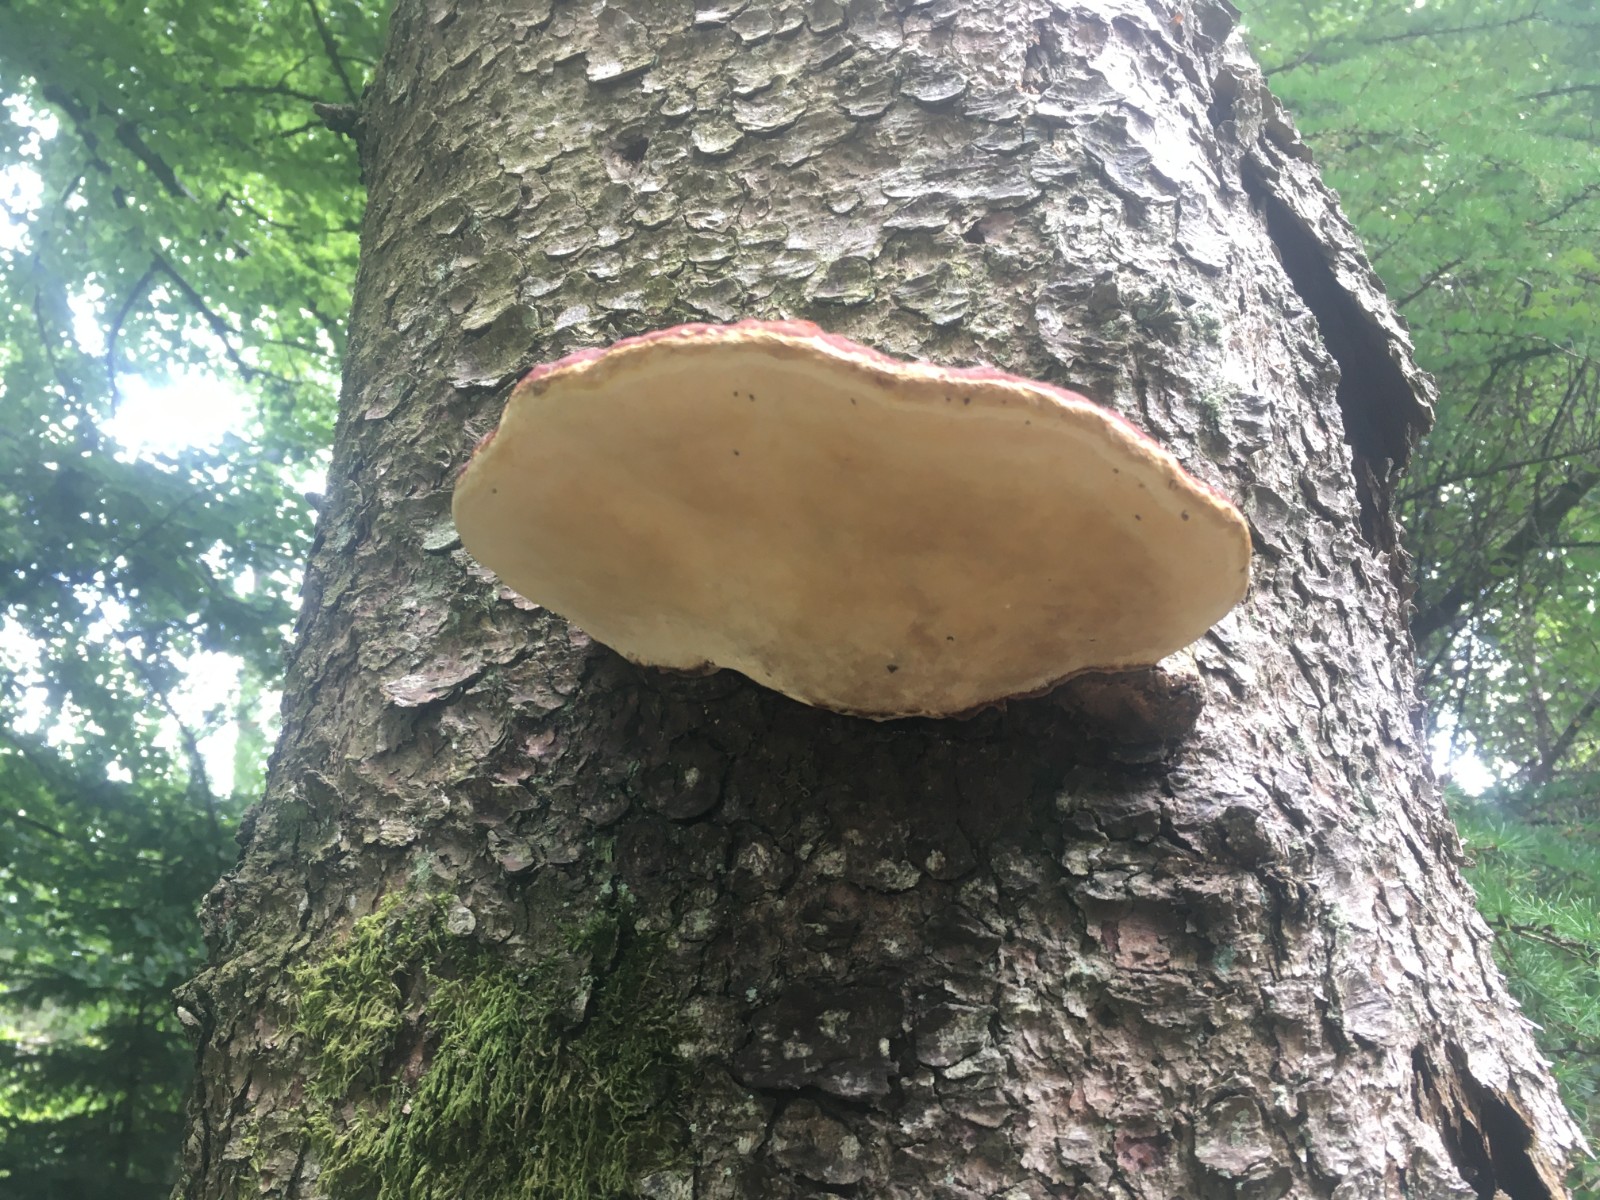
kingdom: Fungi
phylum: Basidiomycota
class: Agaricomycetes
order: Polyporales
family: Fomitopsidaceae
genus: Fomitopsis
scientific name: Fomitopsis pinicola
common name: randbæltet hovporesvamp
